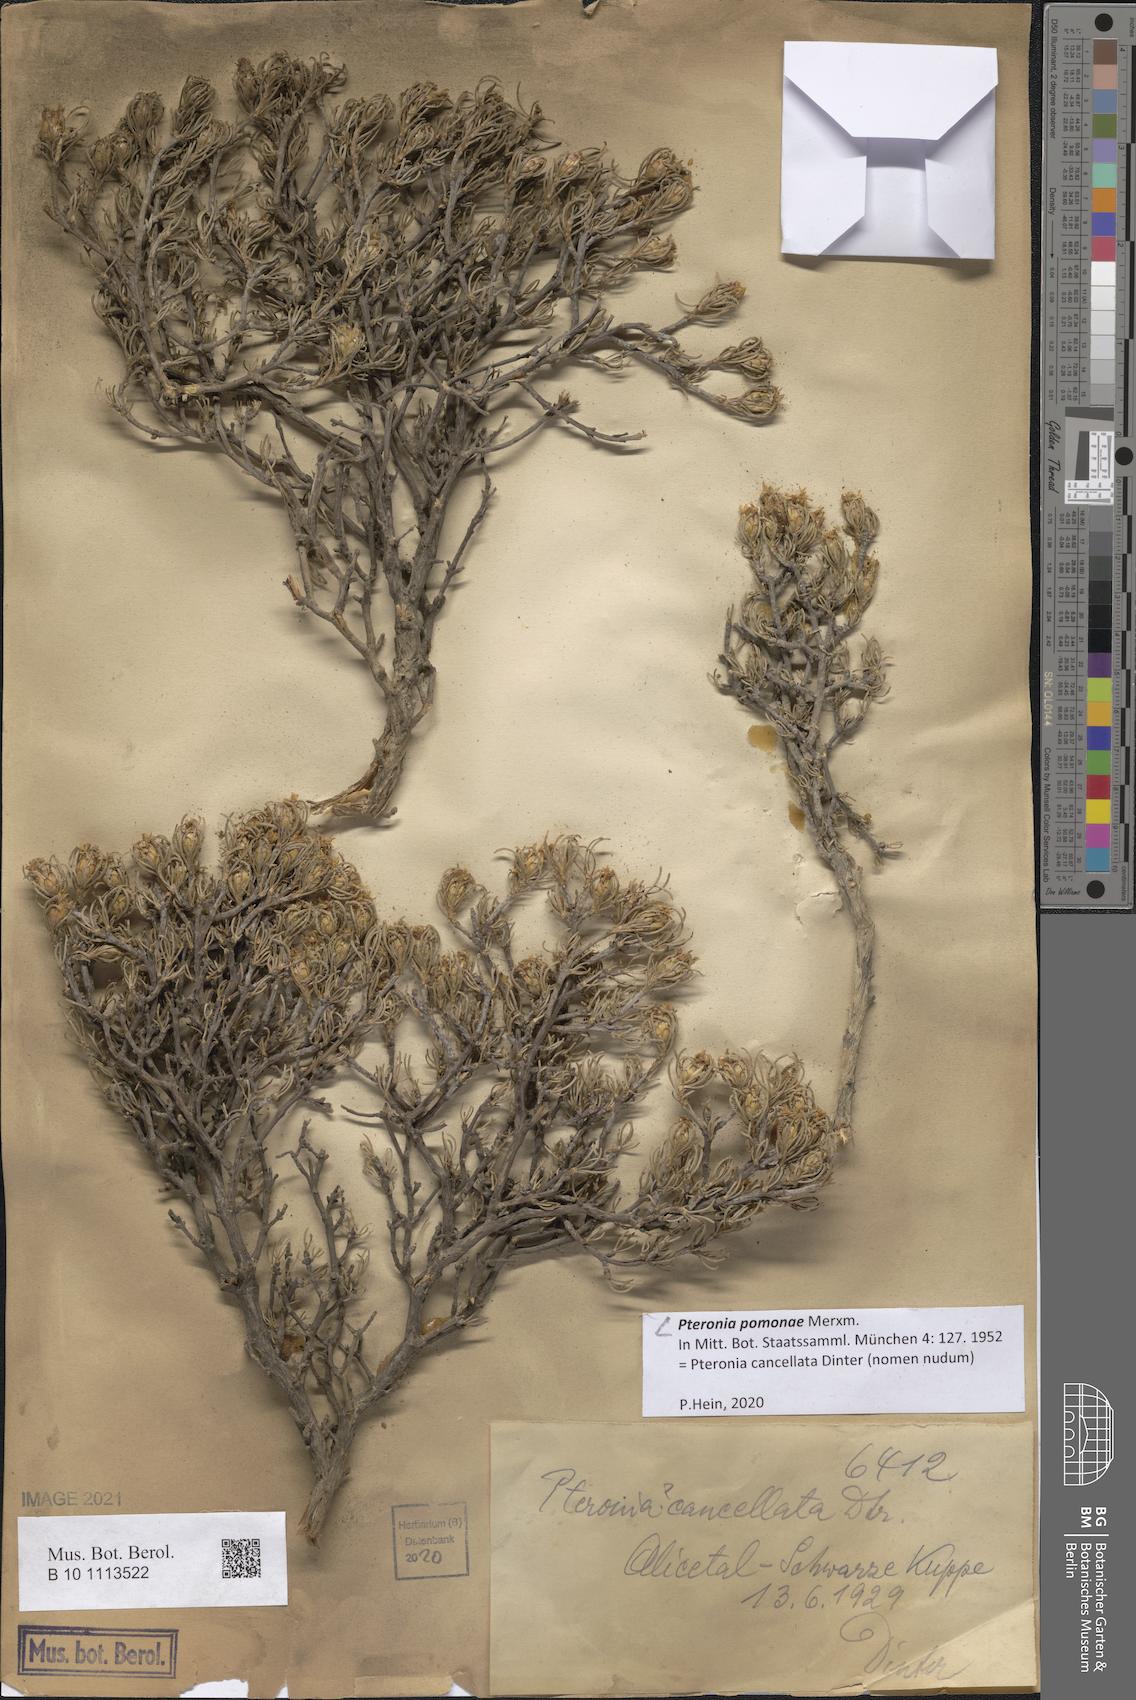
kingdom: Plantae
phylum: Tracheophyta
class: Magnoliopsida
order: Asterales
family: Asteraceae
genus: Pteronia
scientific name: Pteronia pomonae
